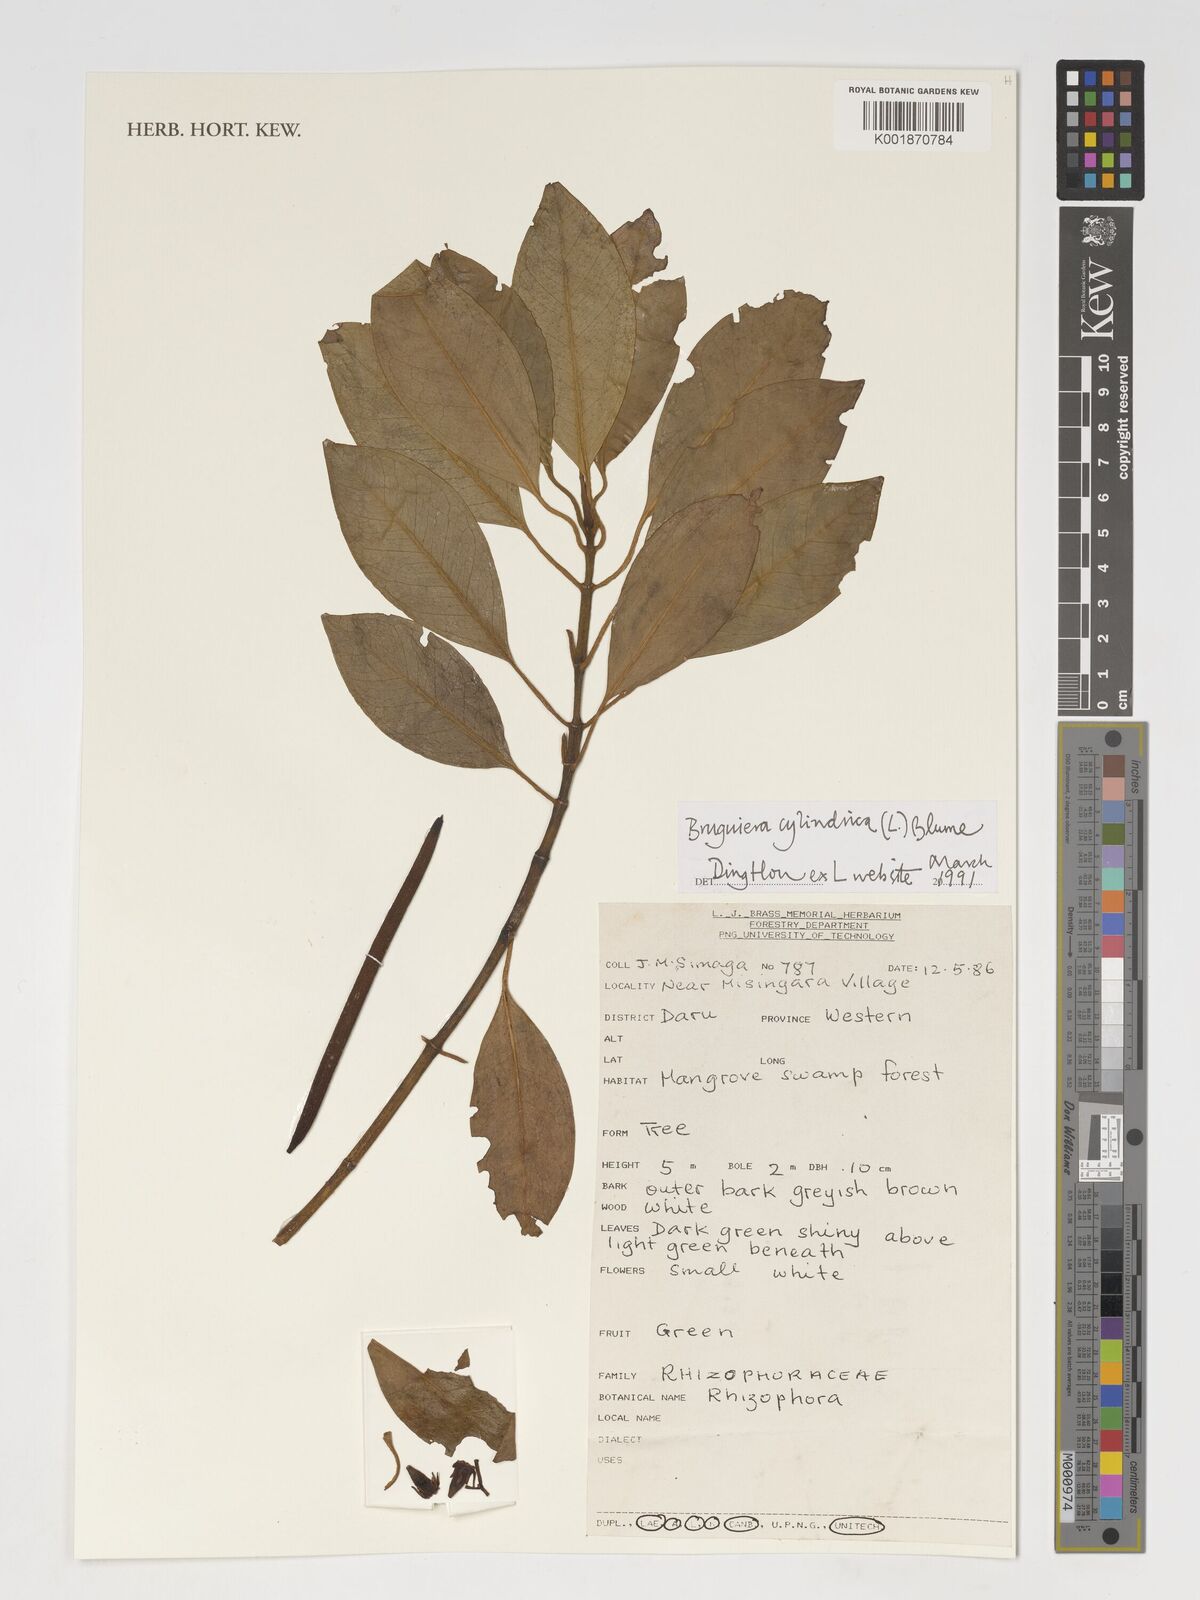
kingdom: Plantae
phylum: Tracheophyta
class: Magnoliopsida
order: Malpighiales
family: Rhizophoraceae
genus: Bruguiera
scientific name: Bruguiera cylindrica
